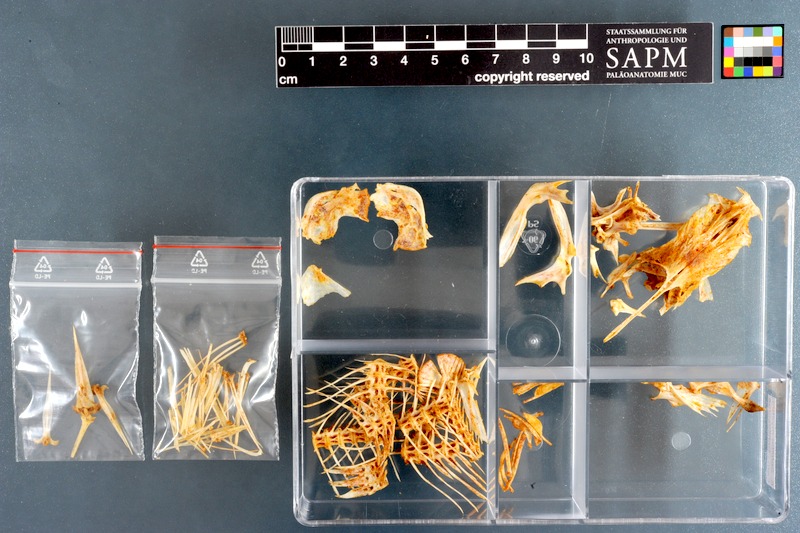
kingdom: Animalia
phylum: Chordata
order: Siluriformes
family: Schilbeidae
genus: Schilbe
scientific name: Schilbe mystus
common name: Silver catfish
